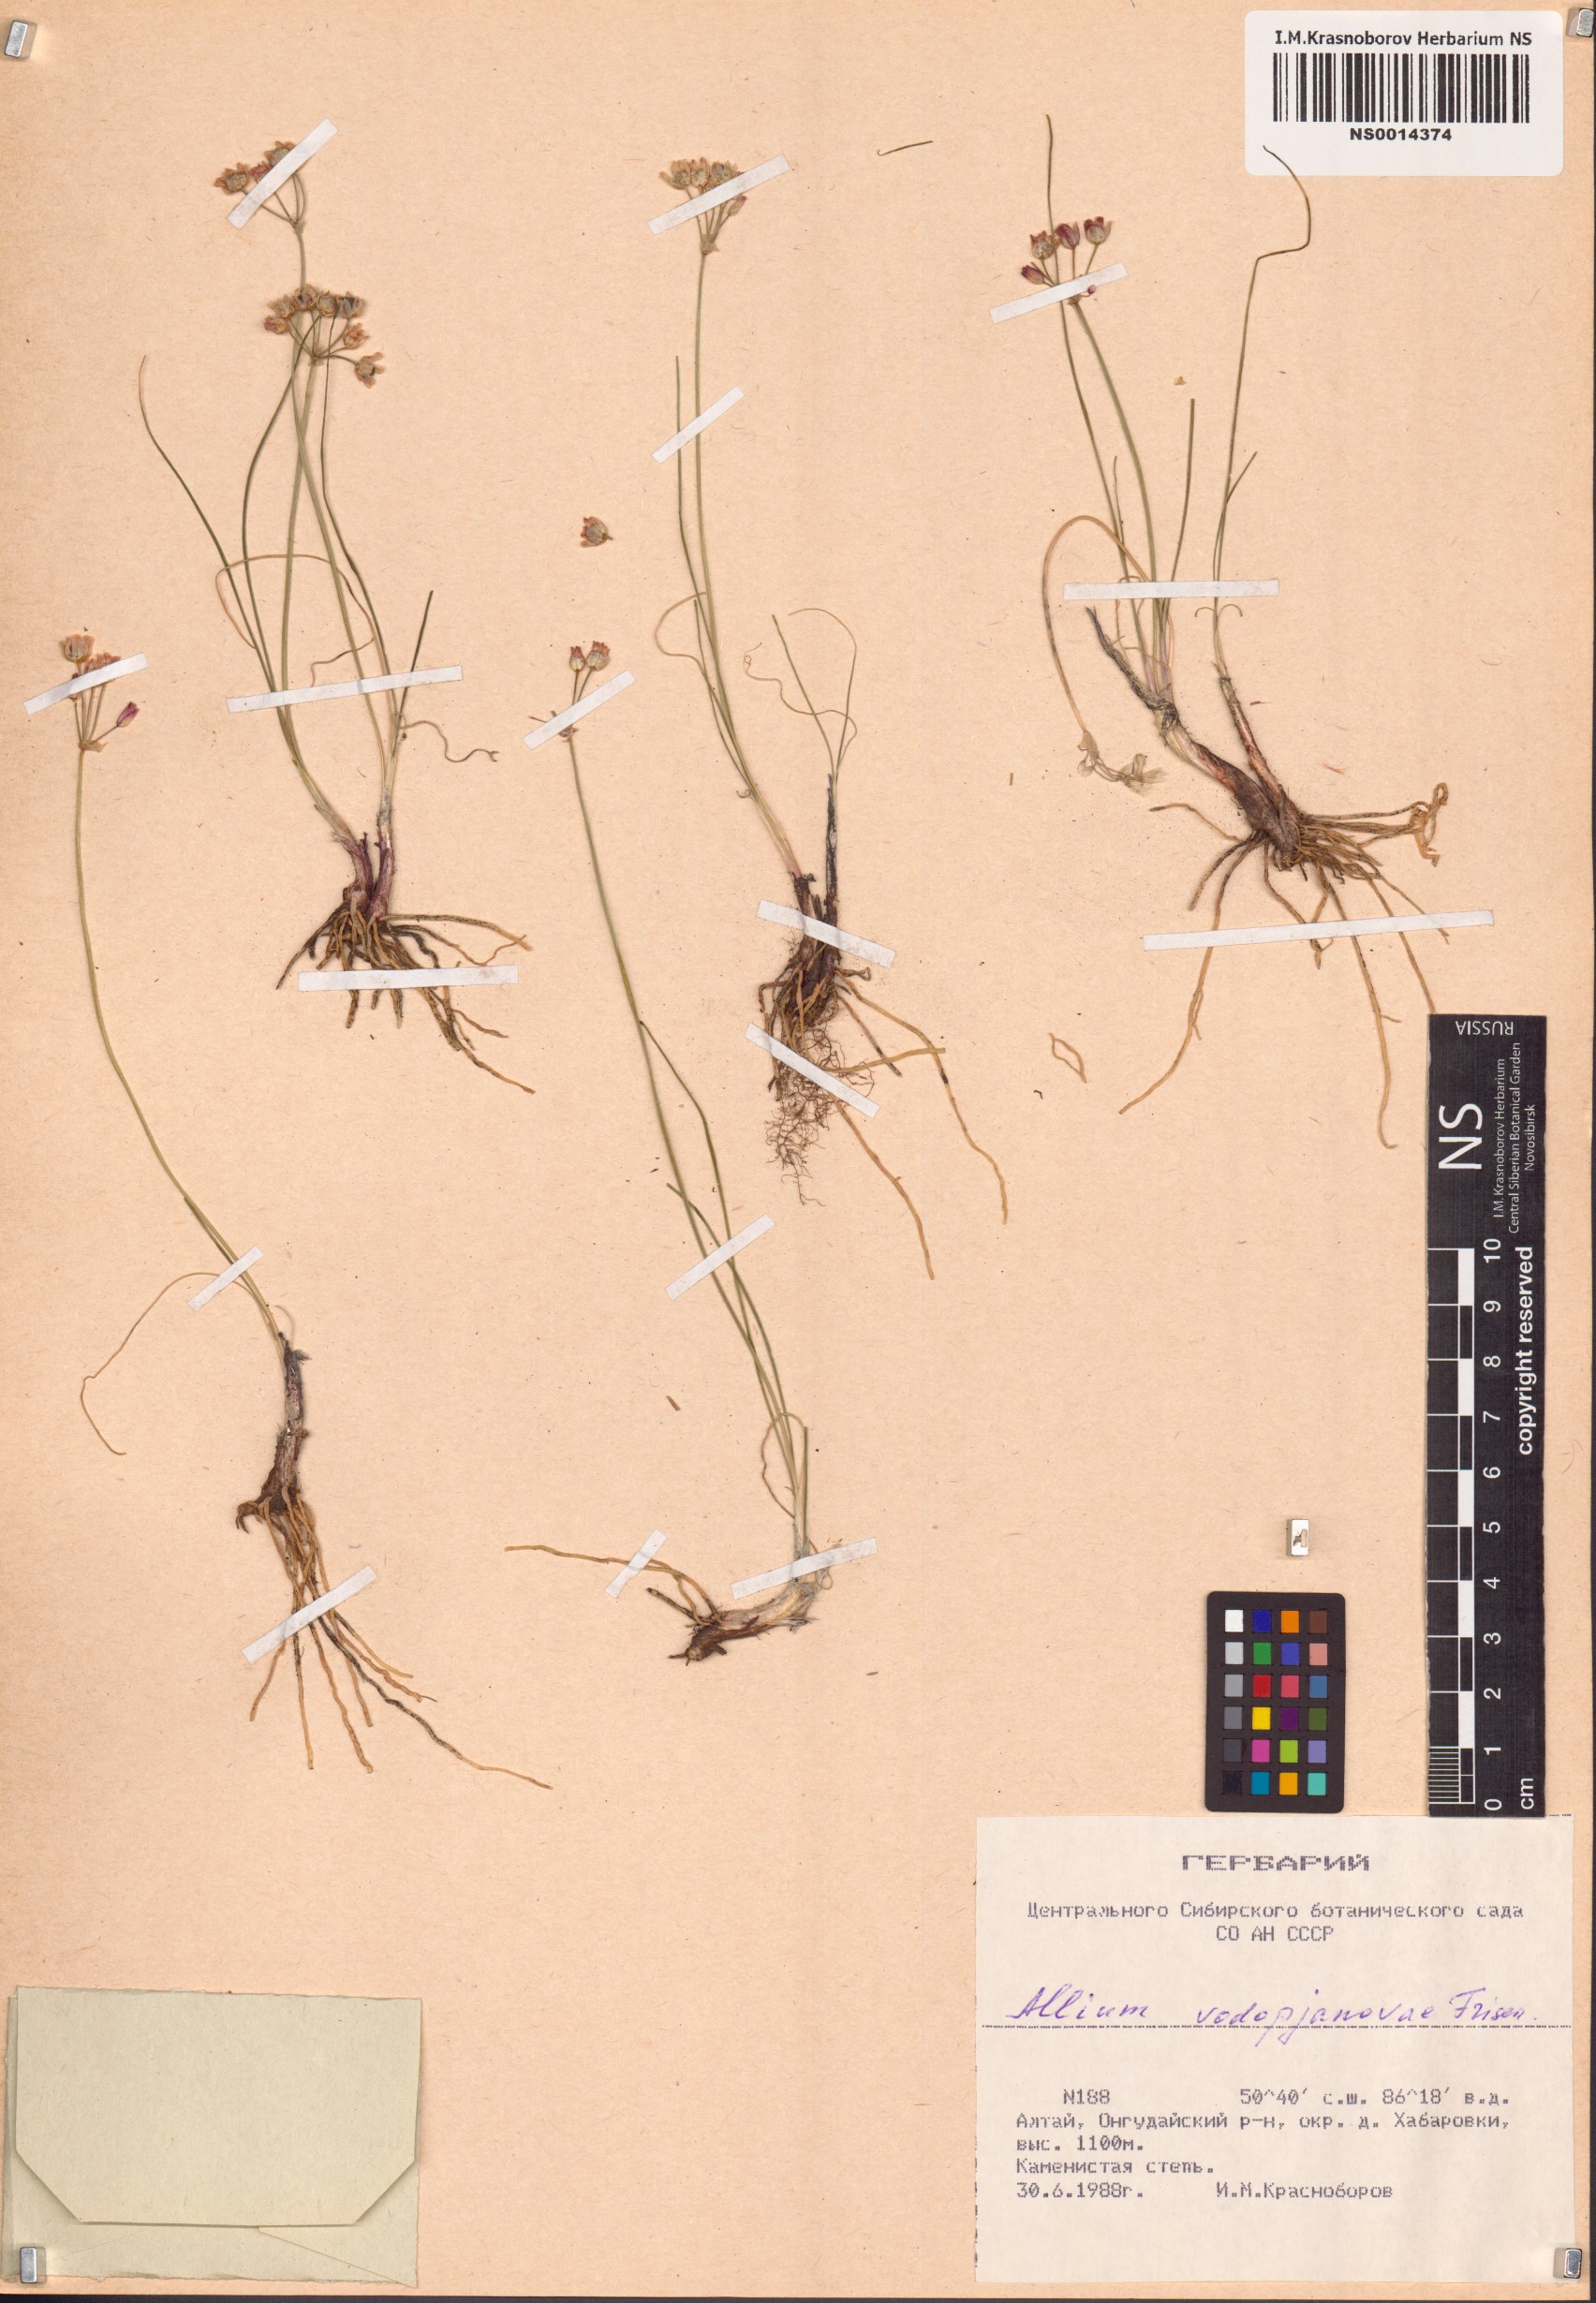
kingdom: Plantae
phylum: Tracheophyta
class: Liliopsida
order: Asparagales
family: Amaryllidaceae
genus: Allium
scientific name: Allium vodopjanovae
